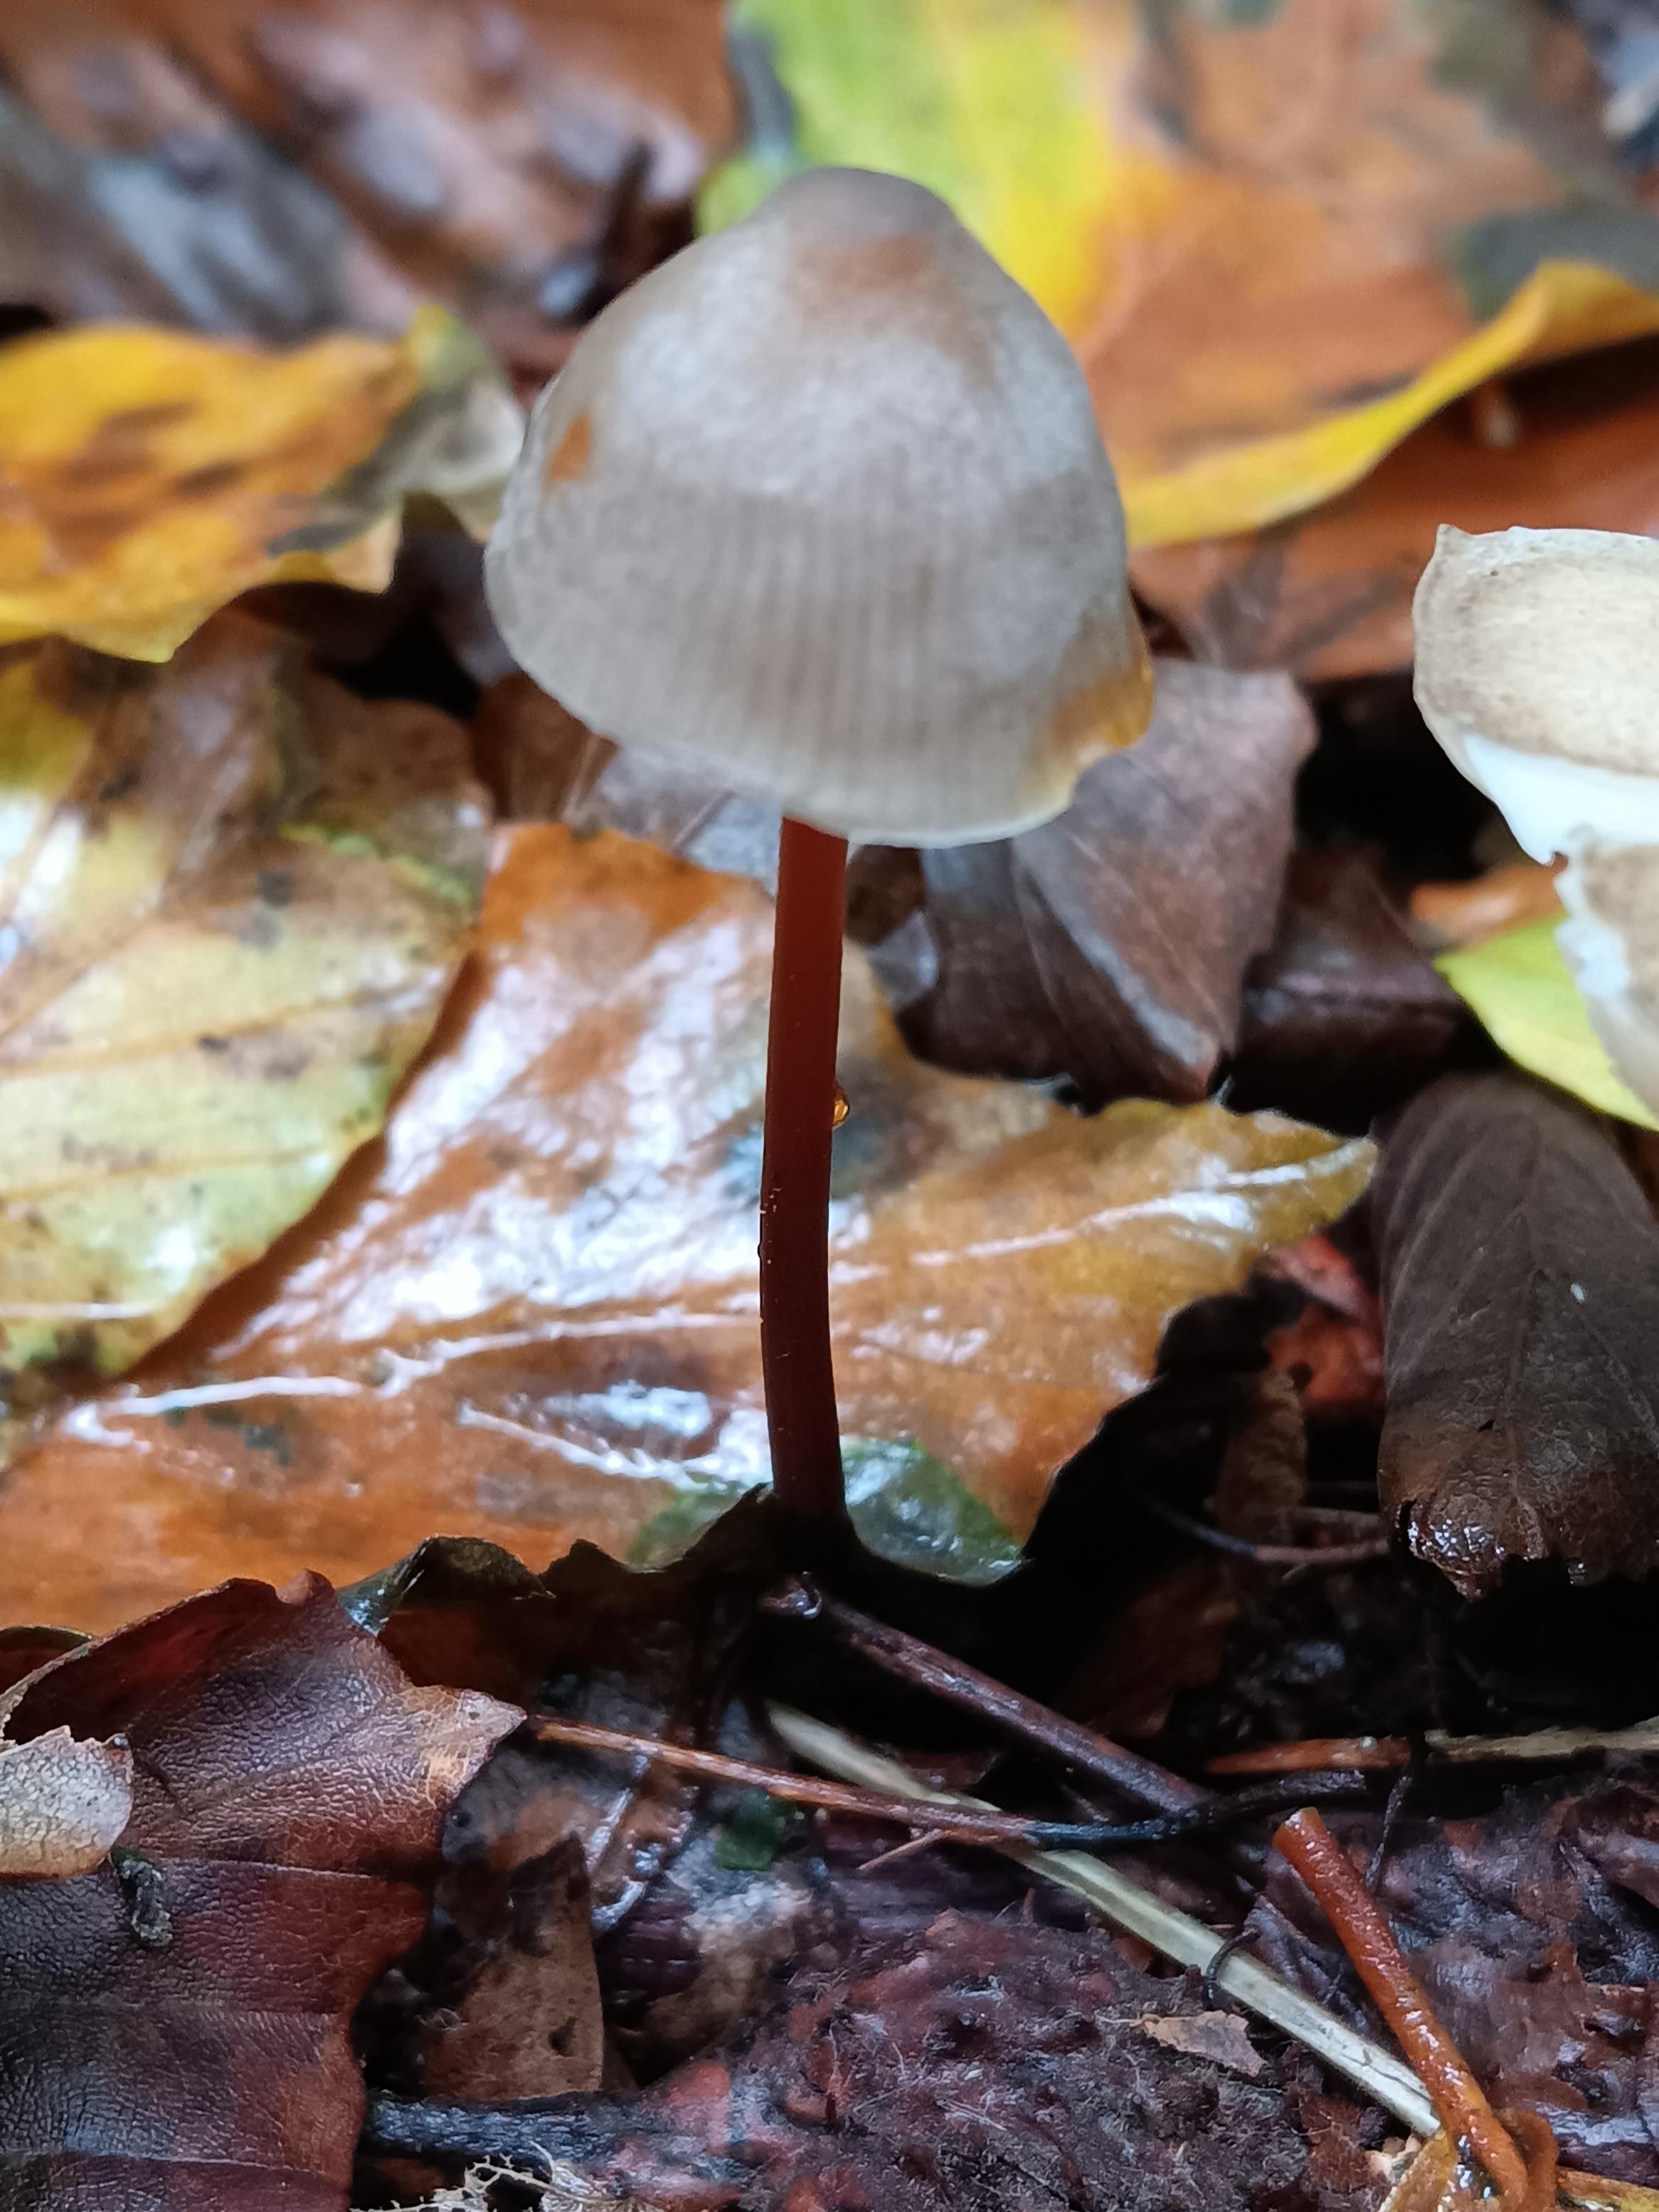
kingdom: Fungi
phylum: Basidiomycota
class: Agaricomycetes
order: Agaricales
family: Mycenaceae
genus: Mycena
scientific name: Mycena crocata
